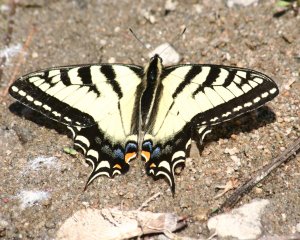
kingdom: Animalia
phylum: Arthropoda
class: Insecta
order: Lepidoptera
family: Papilionidae
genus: Pterourus
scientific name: Pterourus canadensis
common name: Canadian Tiger Swallowtail
